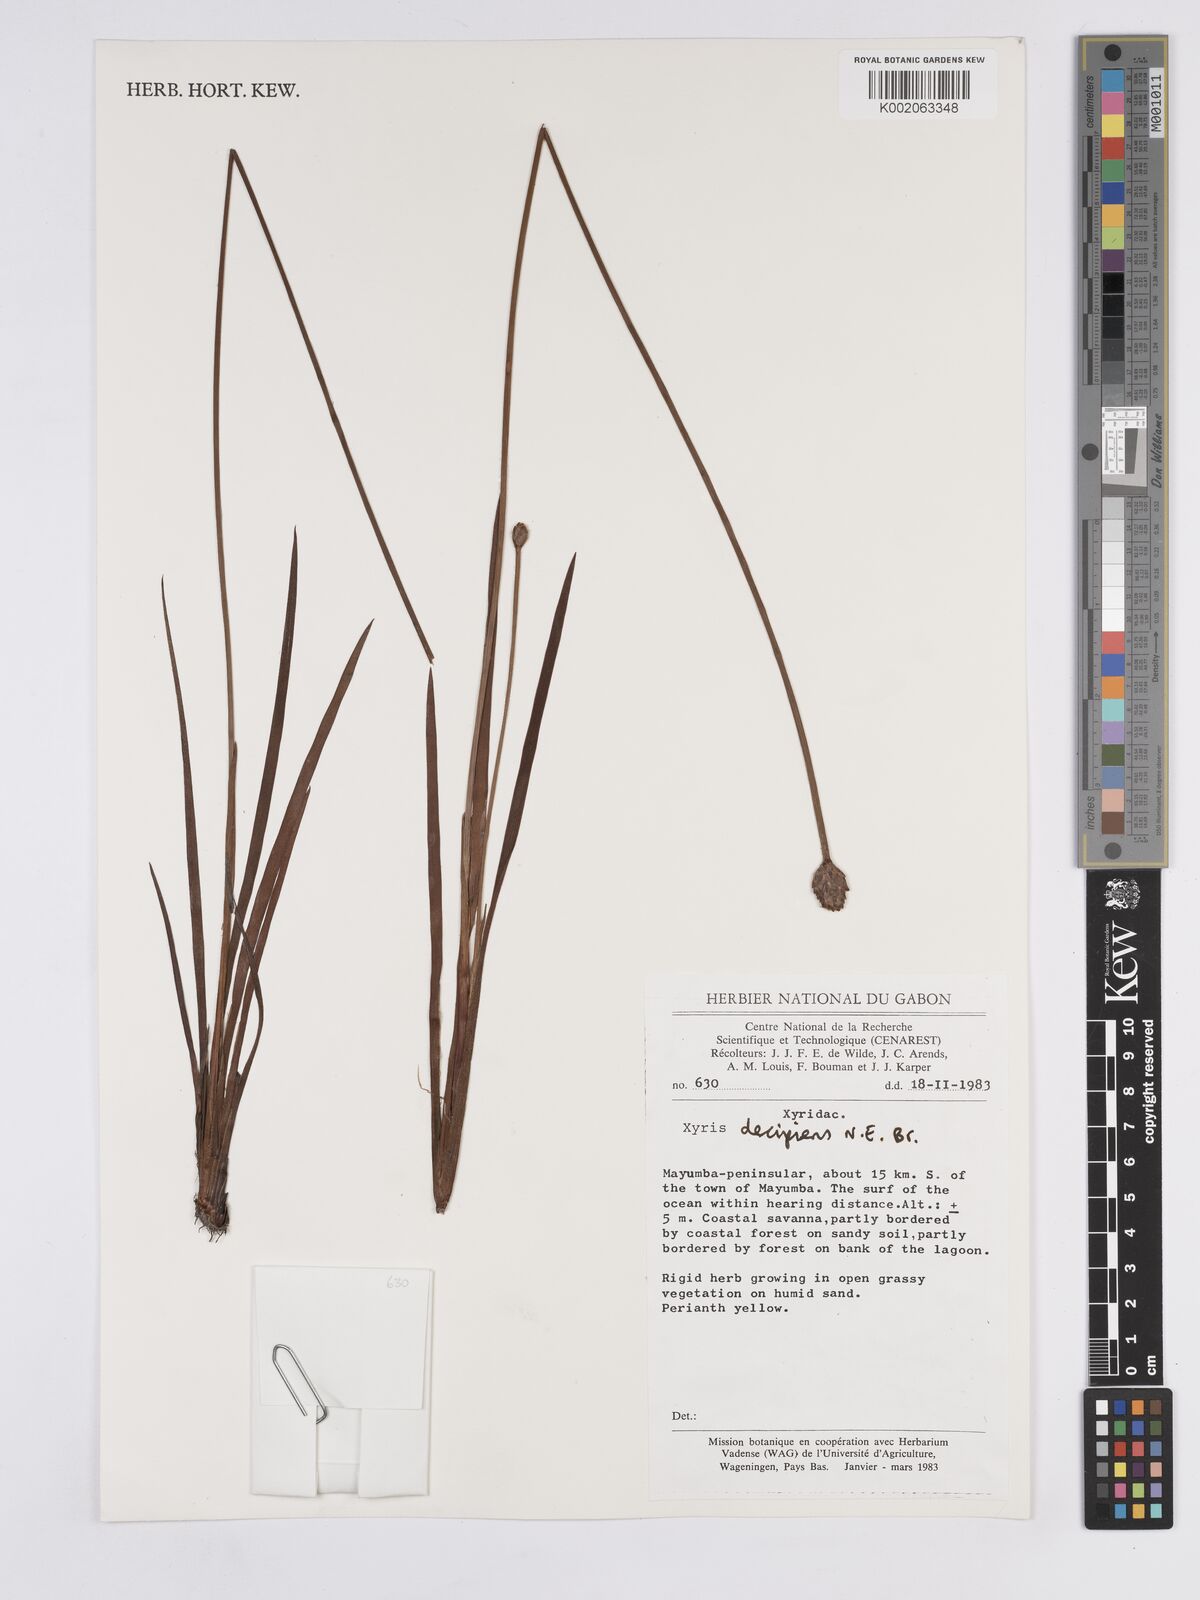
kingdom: Plantae
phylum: Tracheophyta
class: Liliopsida
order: Poales
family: Xyridaceae
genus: Xyris
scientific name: Xyris decipiens
